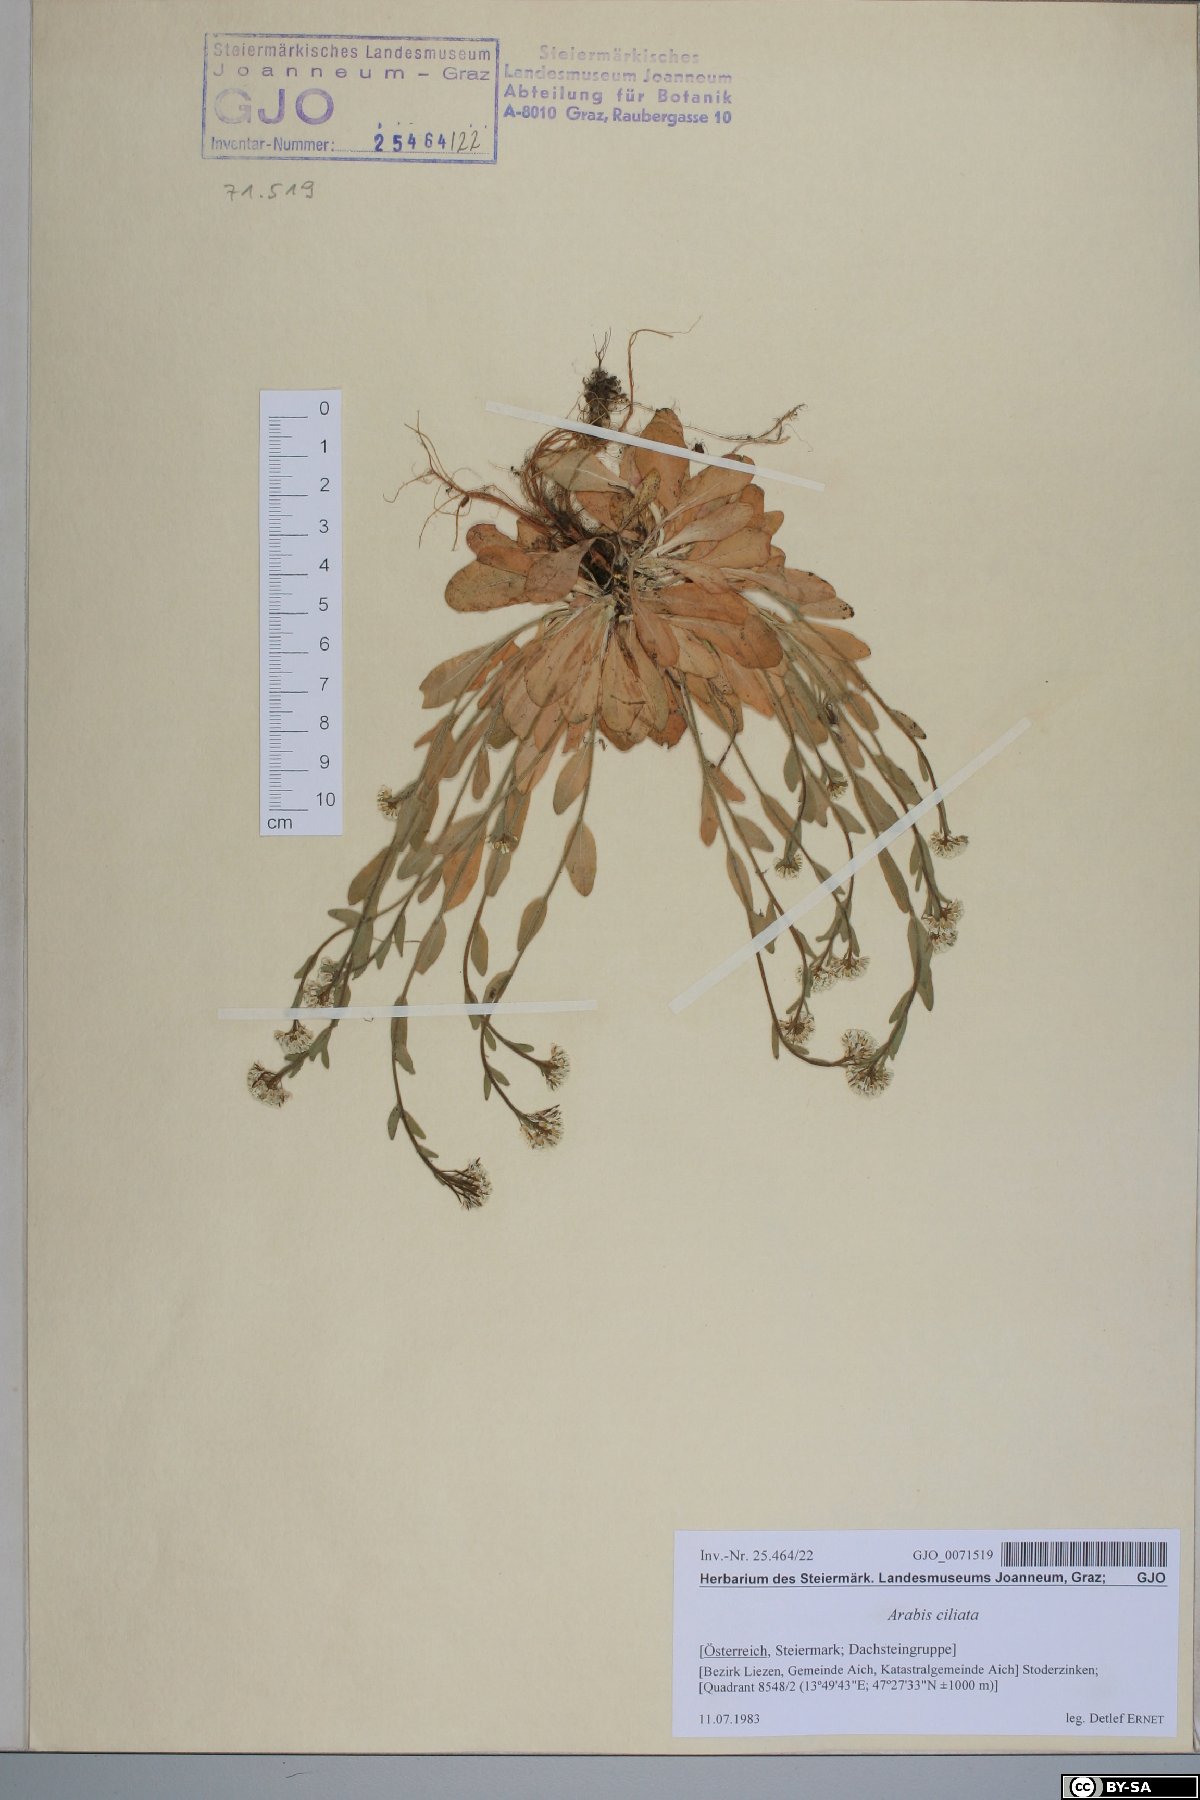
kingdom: Plantae
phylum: Tracheophyta
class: Magnoliopsida
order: Brassicales
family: Brassicaceae
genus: Arabis
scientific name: Arabis ciliata
